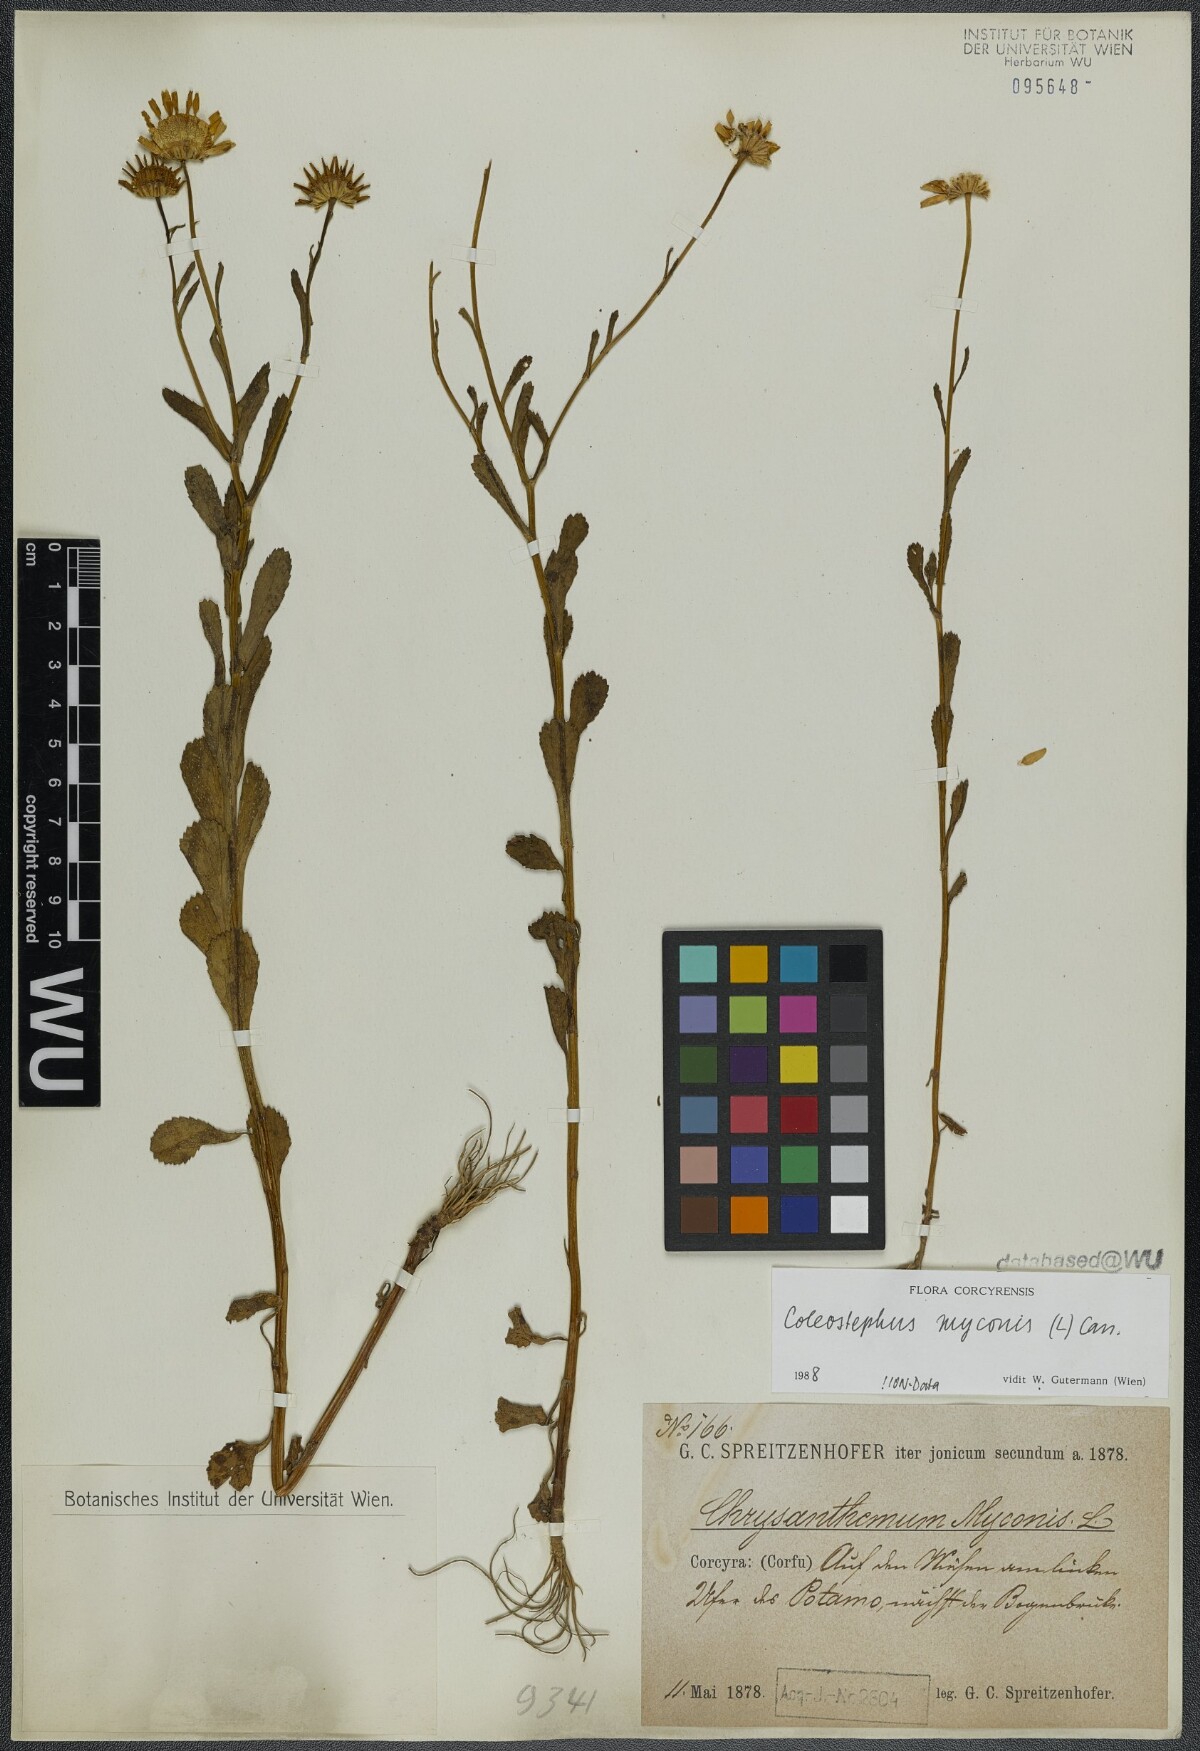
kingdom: Plantae
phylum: Tracheophyta
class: Magnoliopsida
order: Asterales
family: Asteraceae
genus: Coleostephus
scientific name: Coleostephus myconis
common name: Mediterranean marigold
